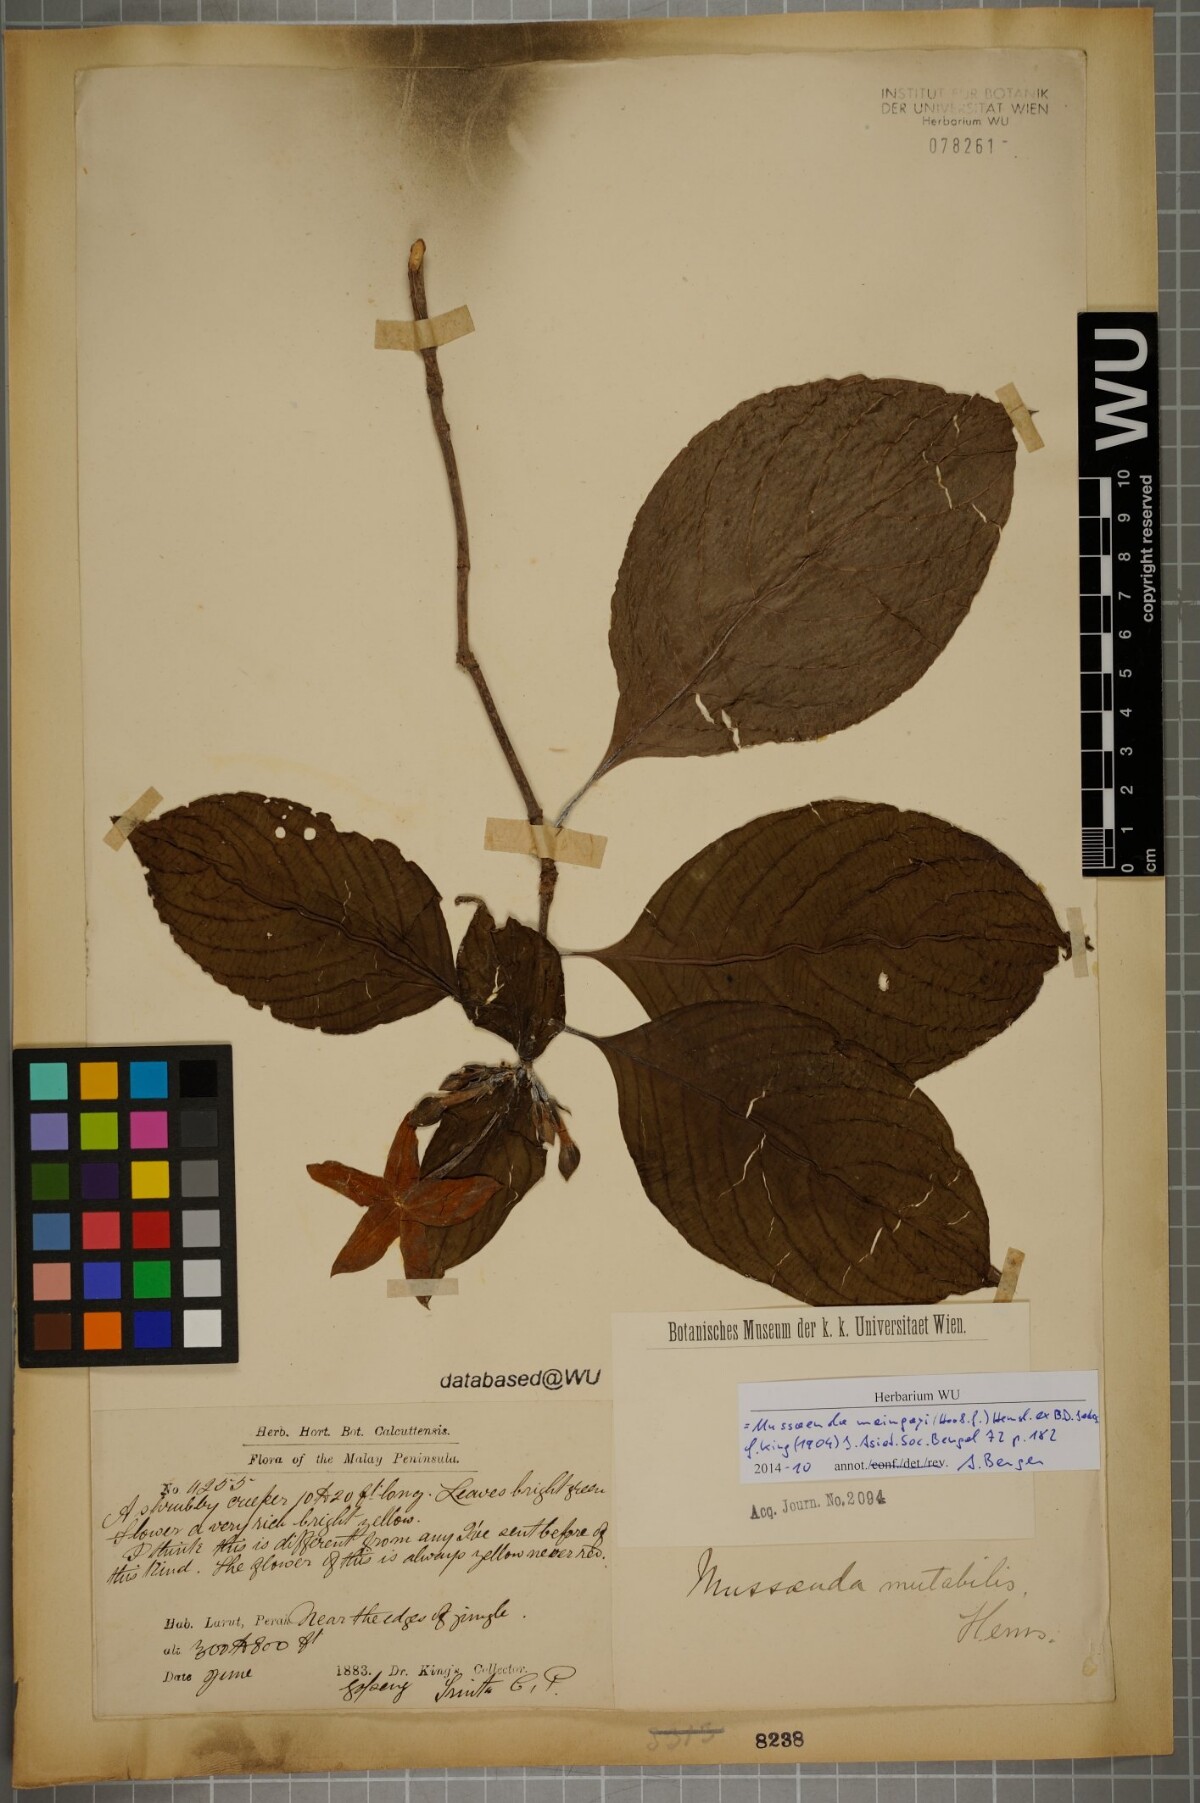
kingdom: Plantae
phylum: Tracheophyta
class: Magnoliopsida
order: Gentianales
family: Rubiaceae
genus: Mussaenda
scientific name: Mussaenda maingayi
